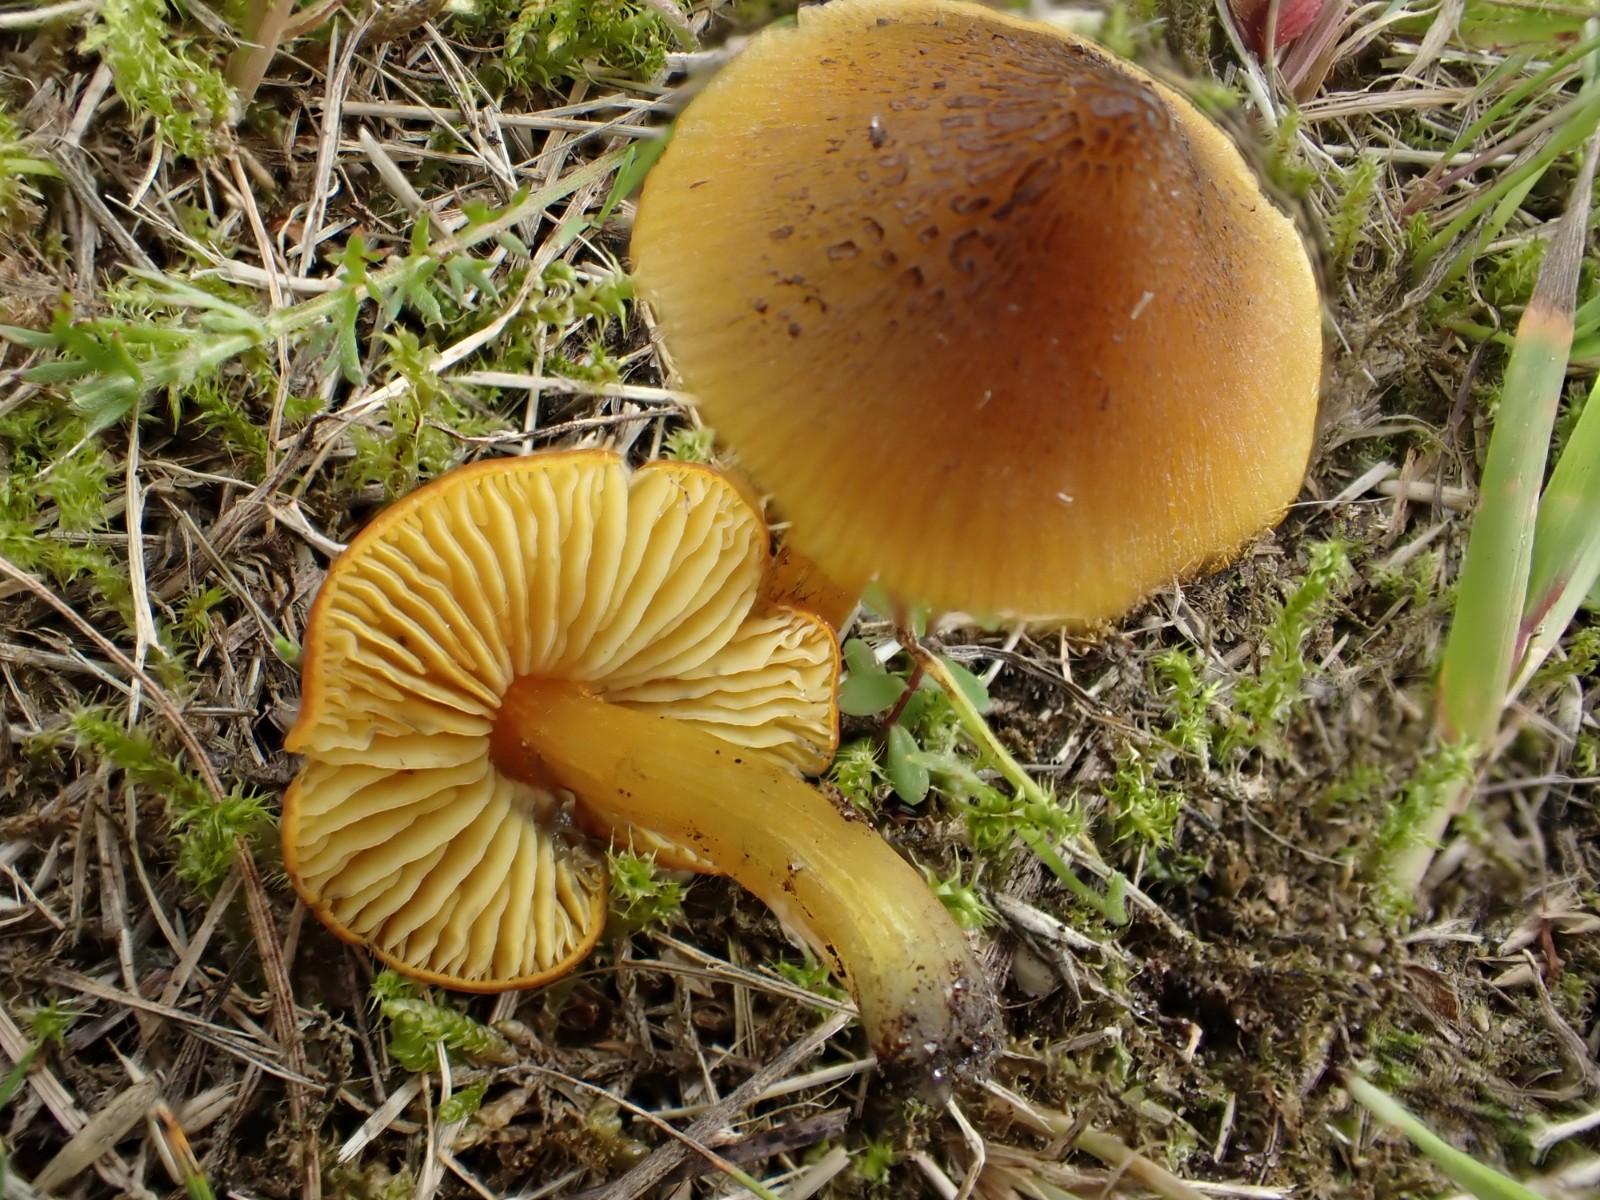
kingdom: Fungi
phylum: Basidiomycota
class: Agaricomycetes
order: Agaricales
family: Hygrophoraceae
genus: Hygrocybe
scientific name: Hygrocybe conica
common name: kegle-vokshat
